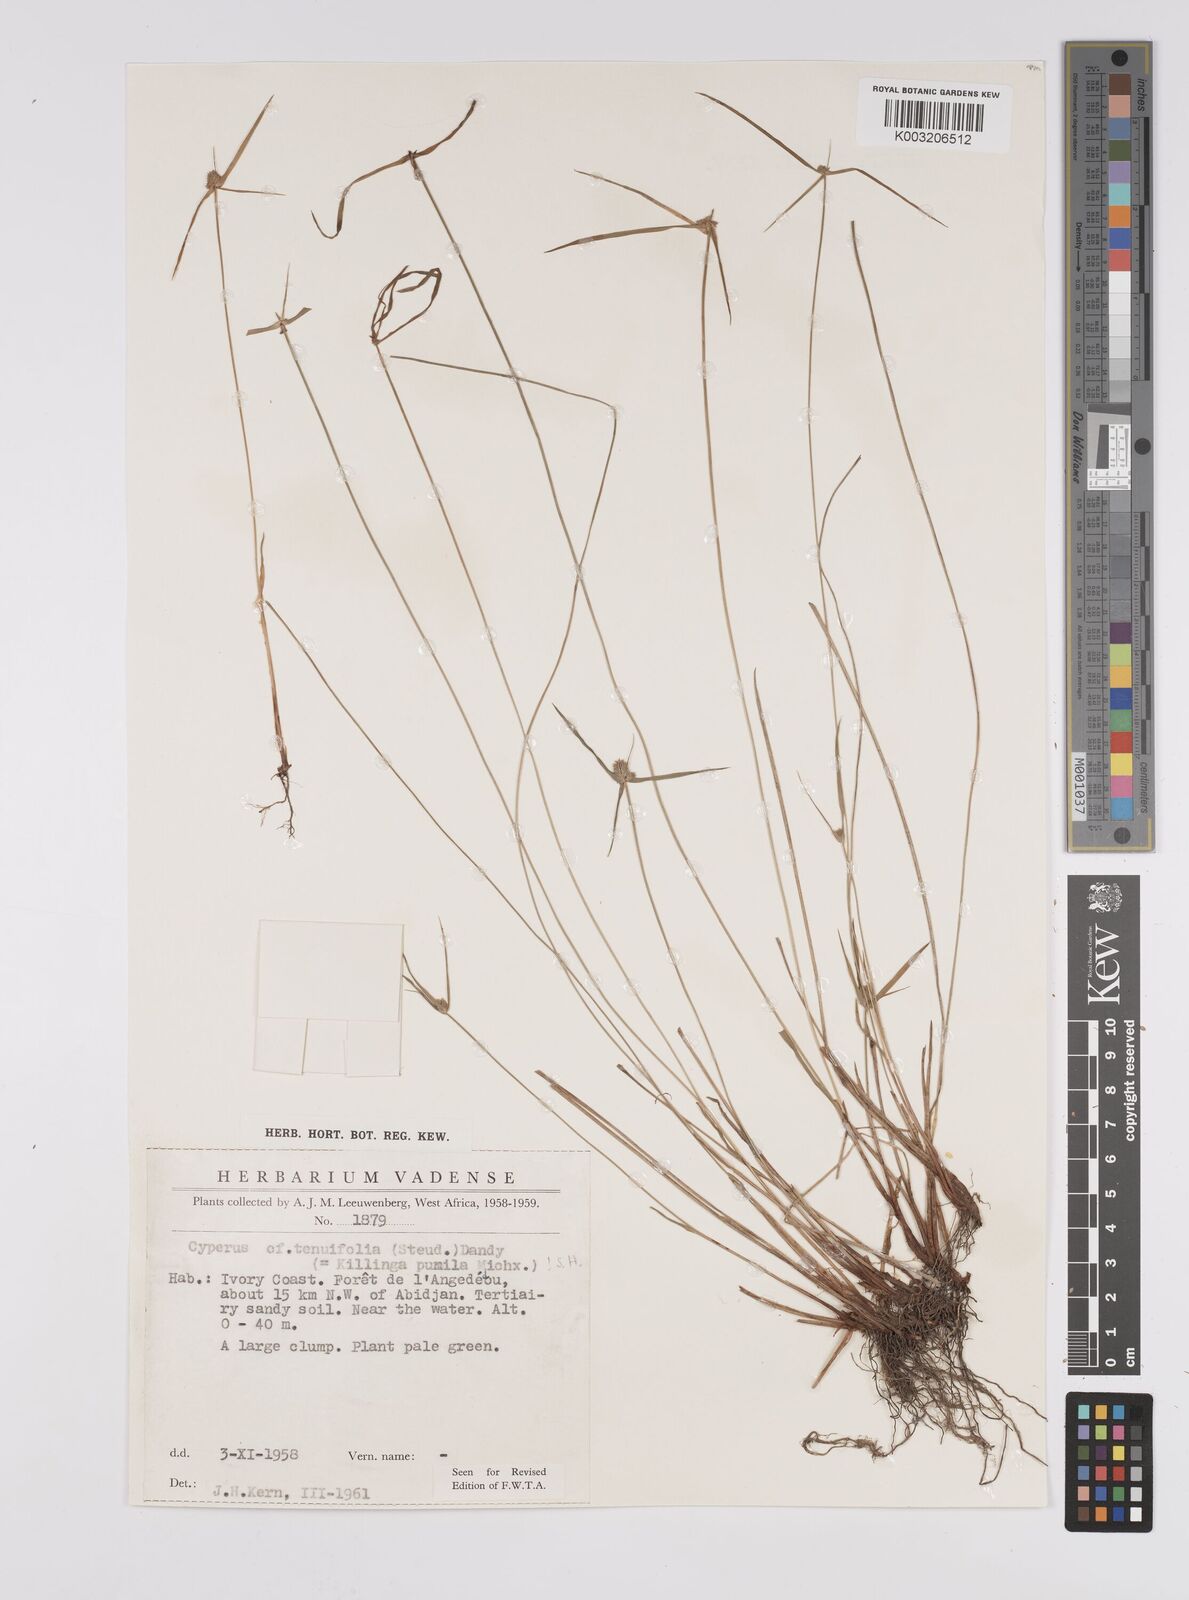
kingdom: Plantae
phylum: Tracheophyta
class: Liliopsida
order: Poales
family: Cyperaceae
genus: Cyperus
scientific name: Cyperus
